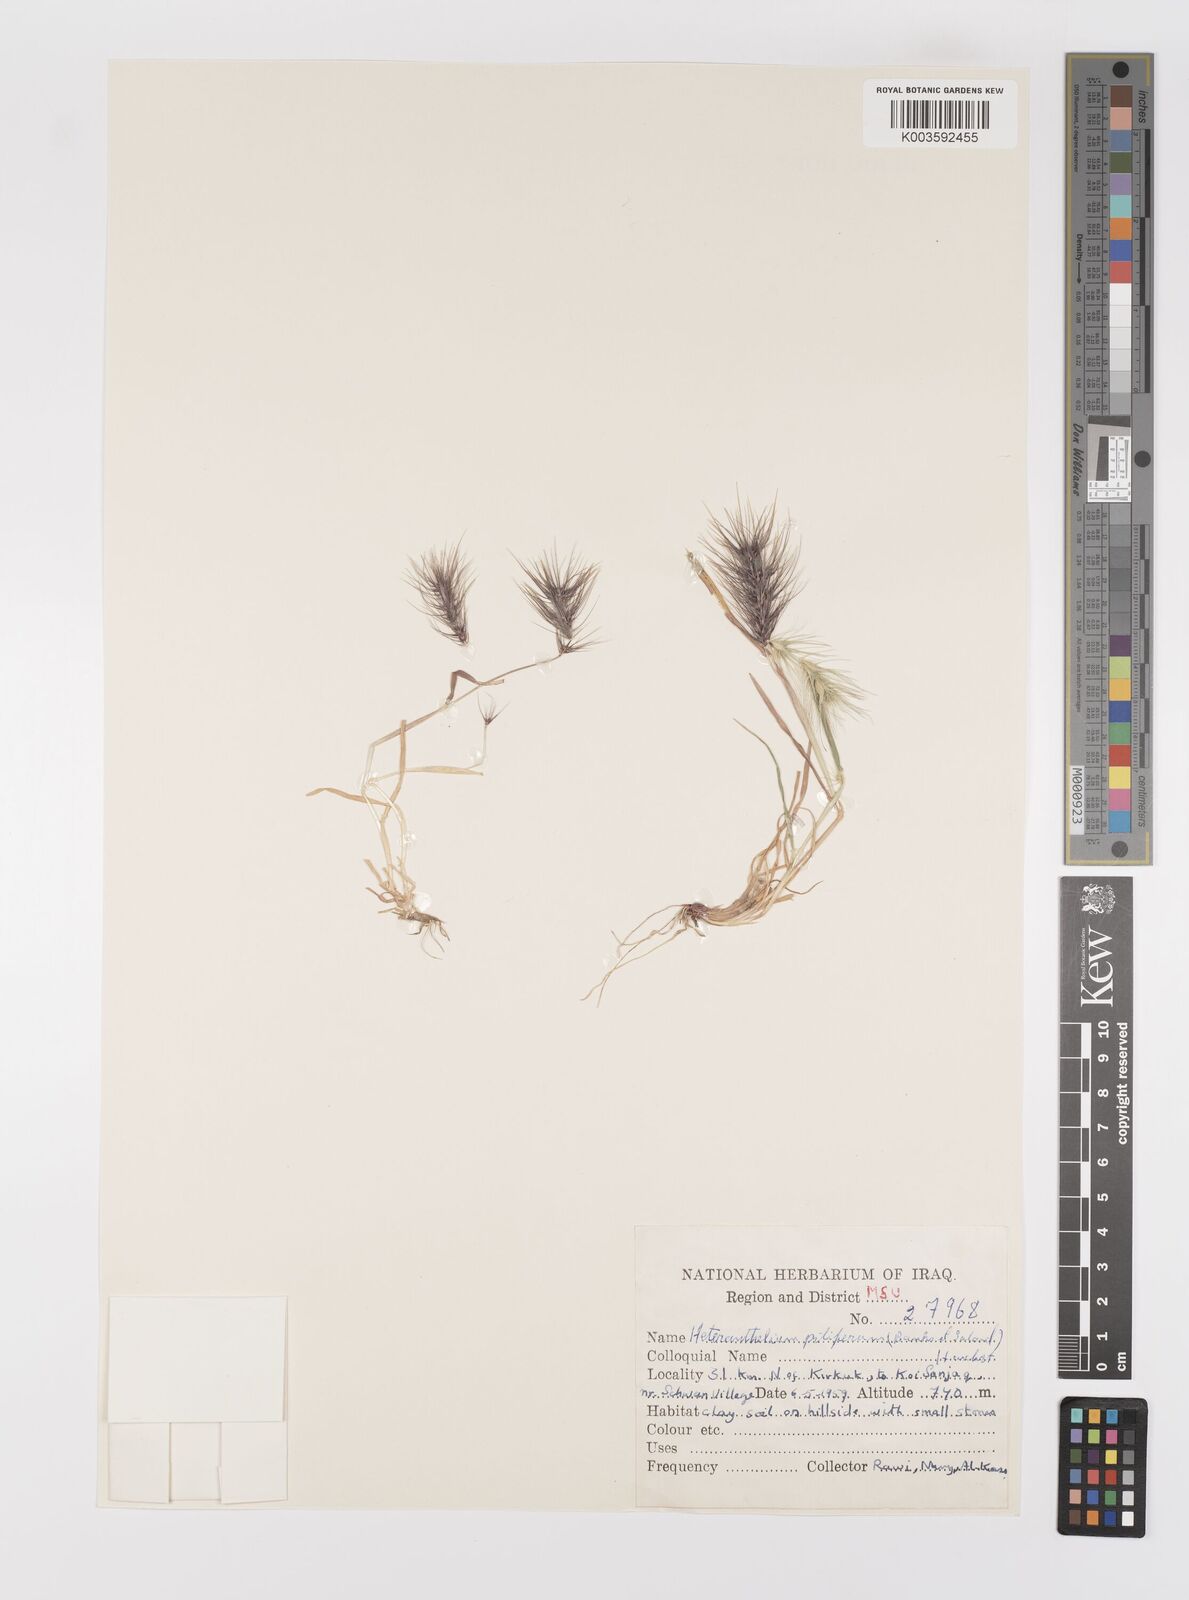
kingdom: Plantae
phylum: Tracheophyta
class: Liliopsida
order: Poales
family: Poaceae
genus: Heteranthelium
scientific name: Heteranthelium piliferum
